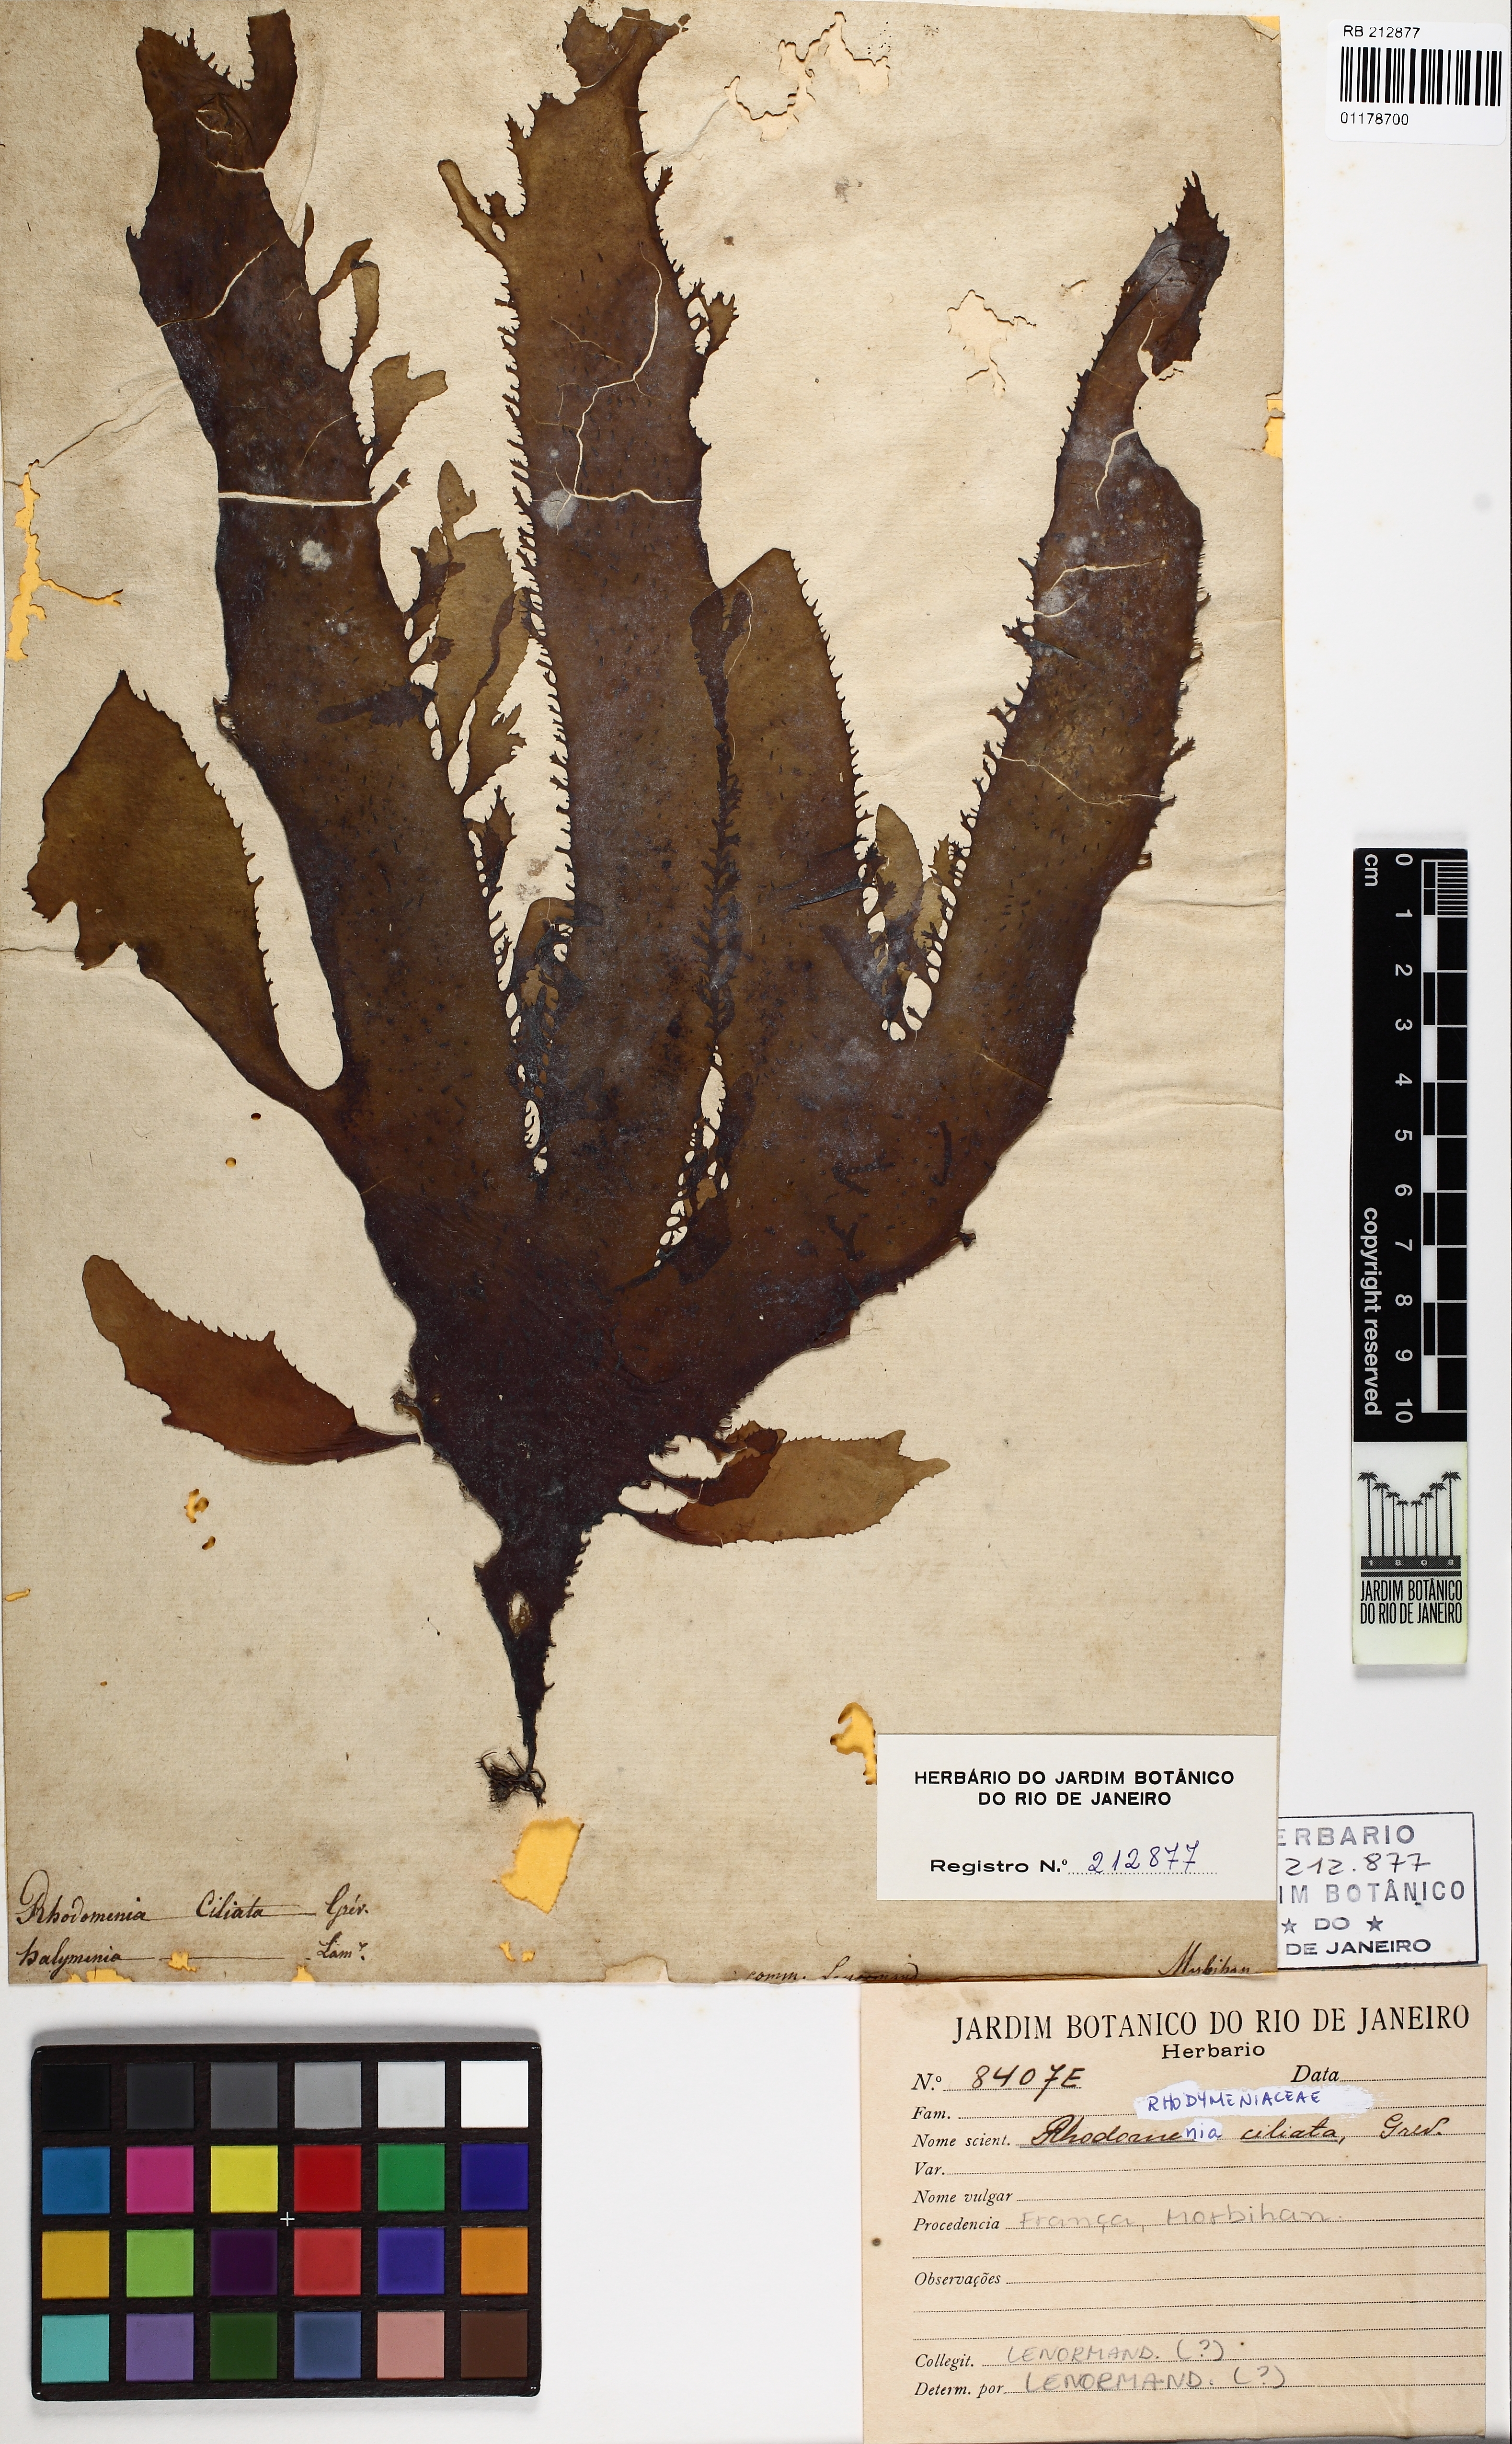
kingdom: Plantae
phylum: Rhodophyta
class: Florideophyceae
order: Gigartinales
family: Cystocloniaceae
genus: Calliblepharis
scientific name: Calliblepharis ciliata
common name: Eyelash weed
